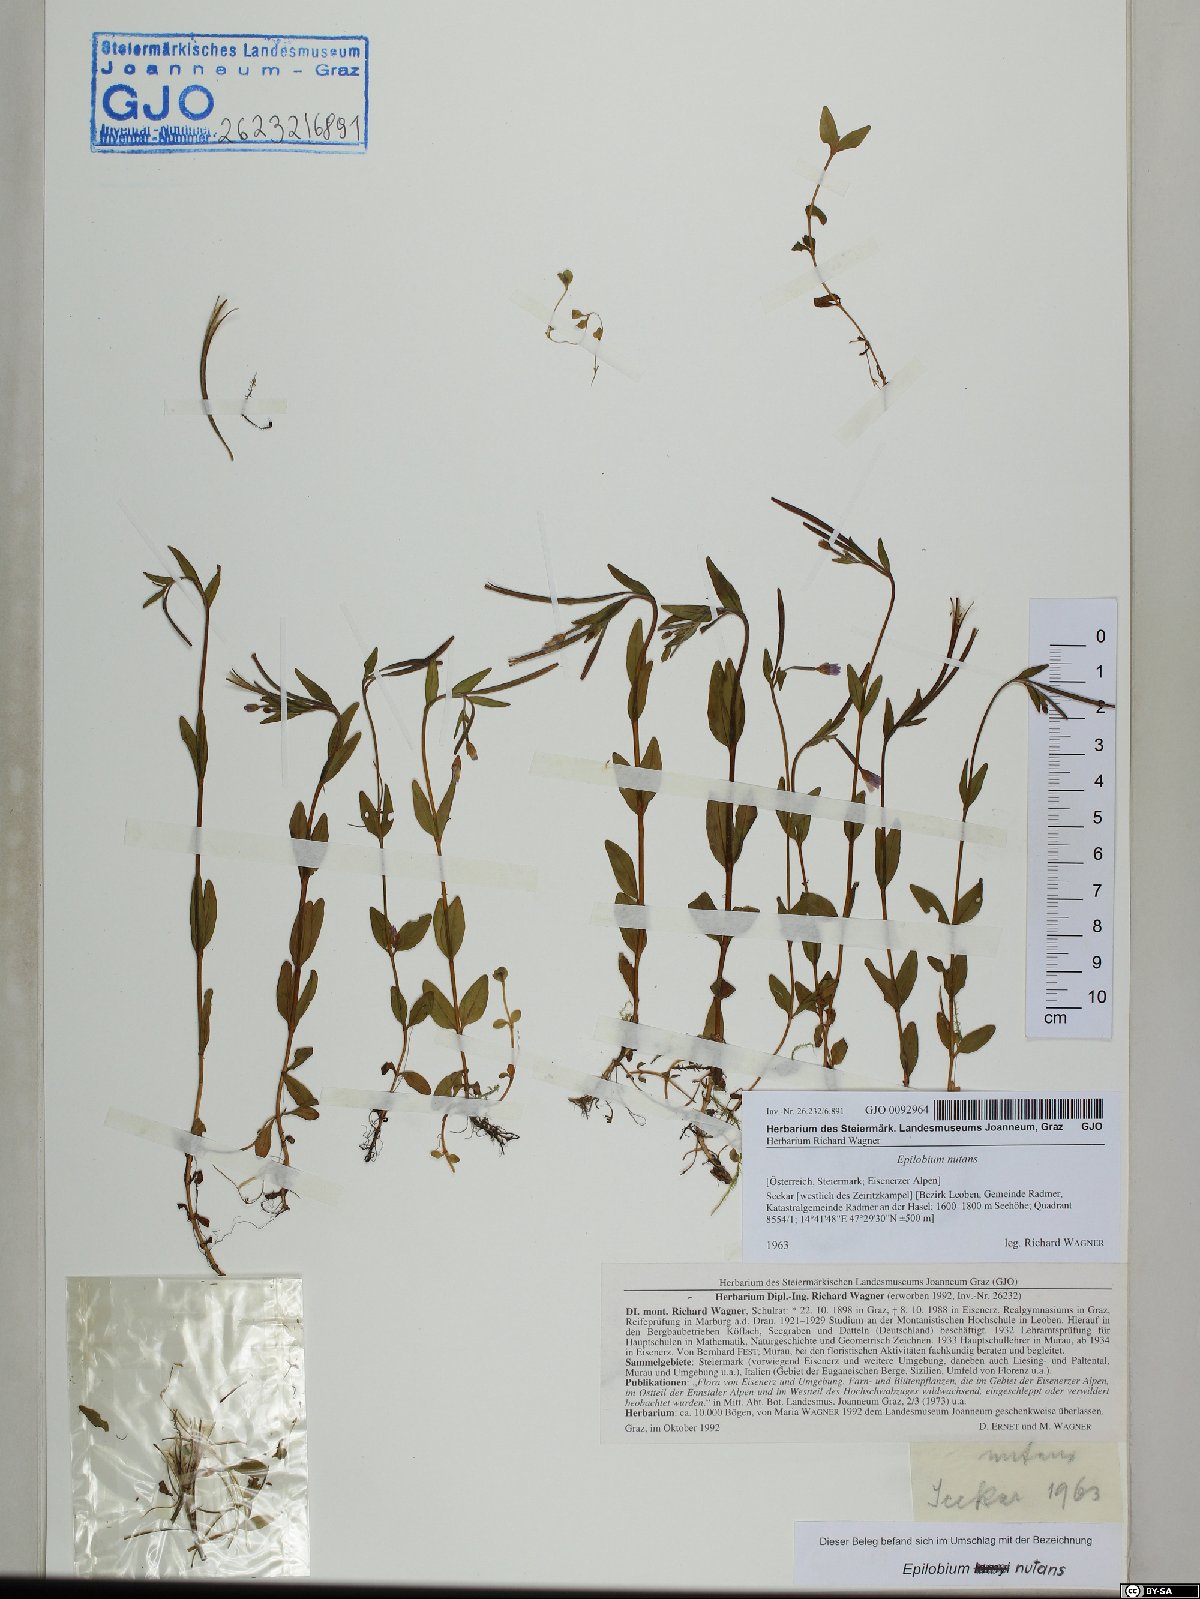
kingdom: Plantae
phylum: Tracheophyta
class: Magnoliopsida
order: Myrtales
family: Onagraceae
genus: Epilobium
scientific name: Epilobium nutans
